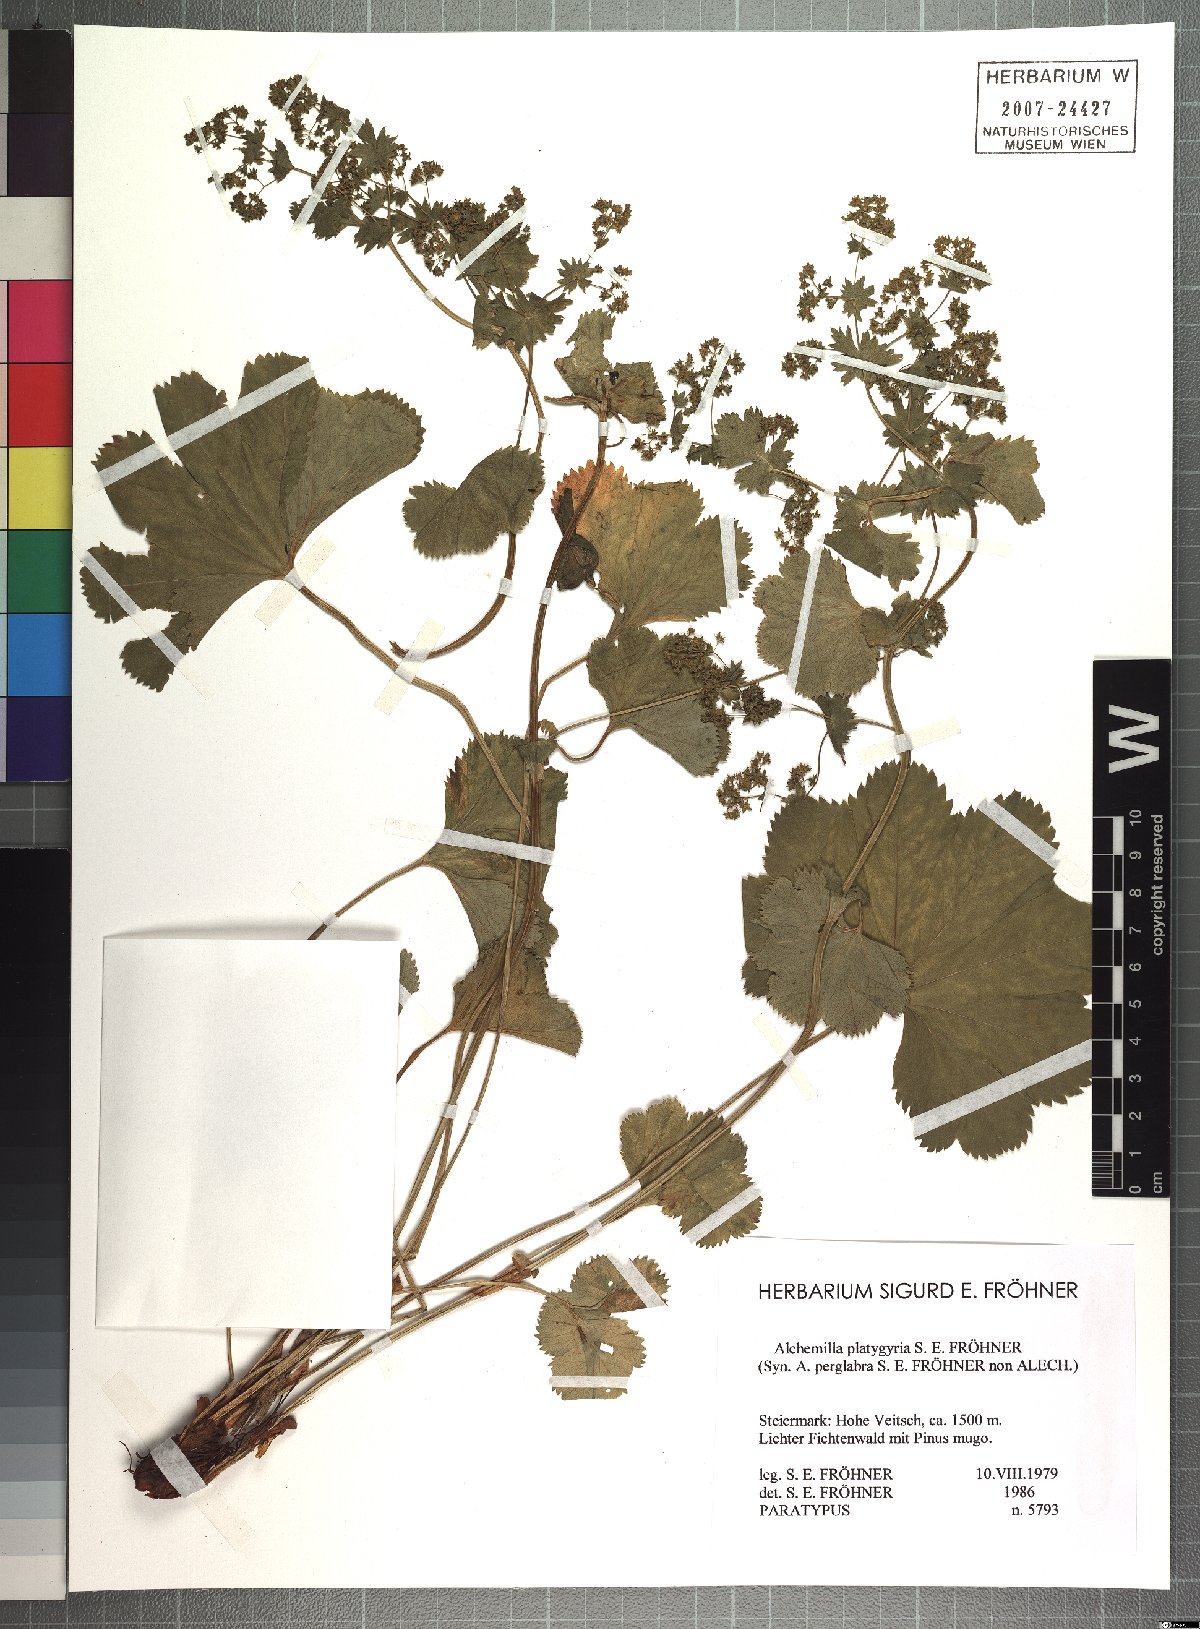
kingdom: Plantae
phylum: Tracheophyta
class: Magnoliopsida
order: Rosales
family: Rosaceae
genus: Alchemilla
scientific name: Alchemilla platygyria
